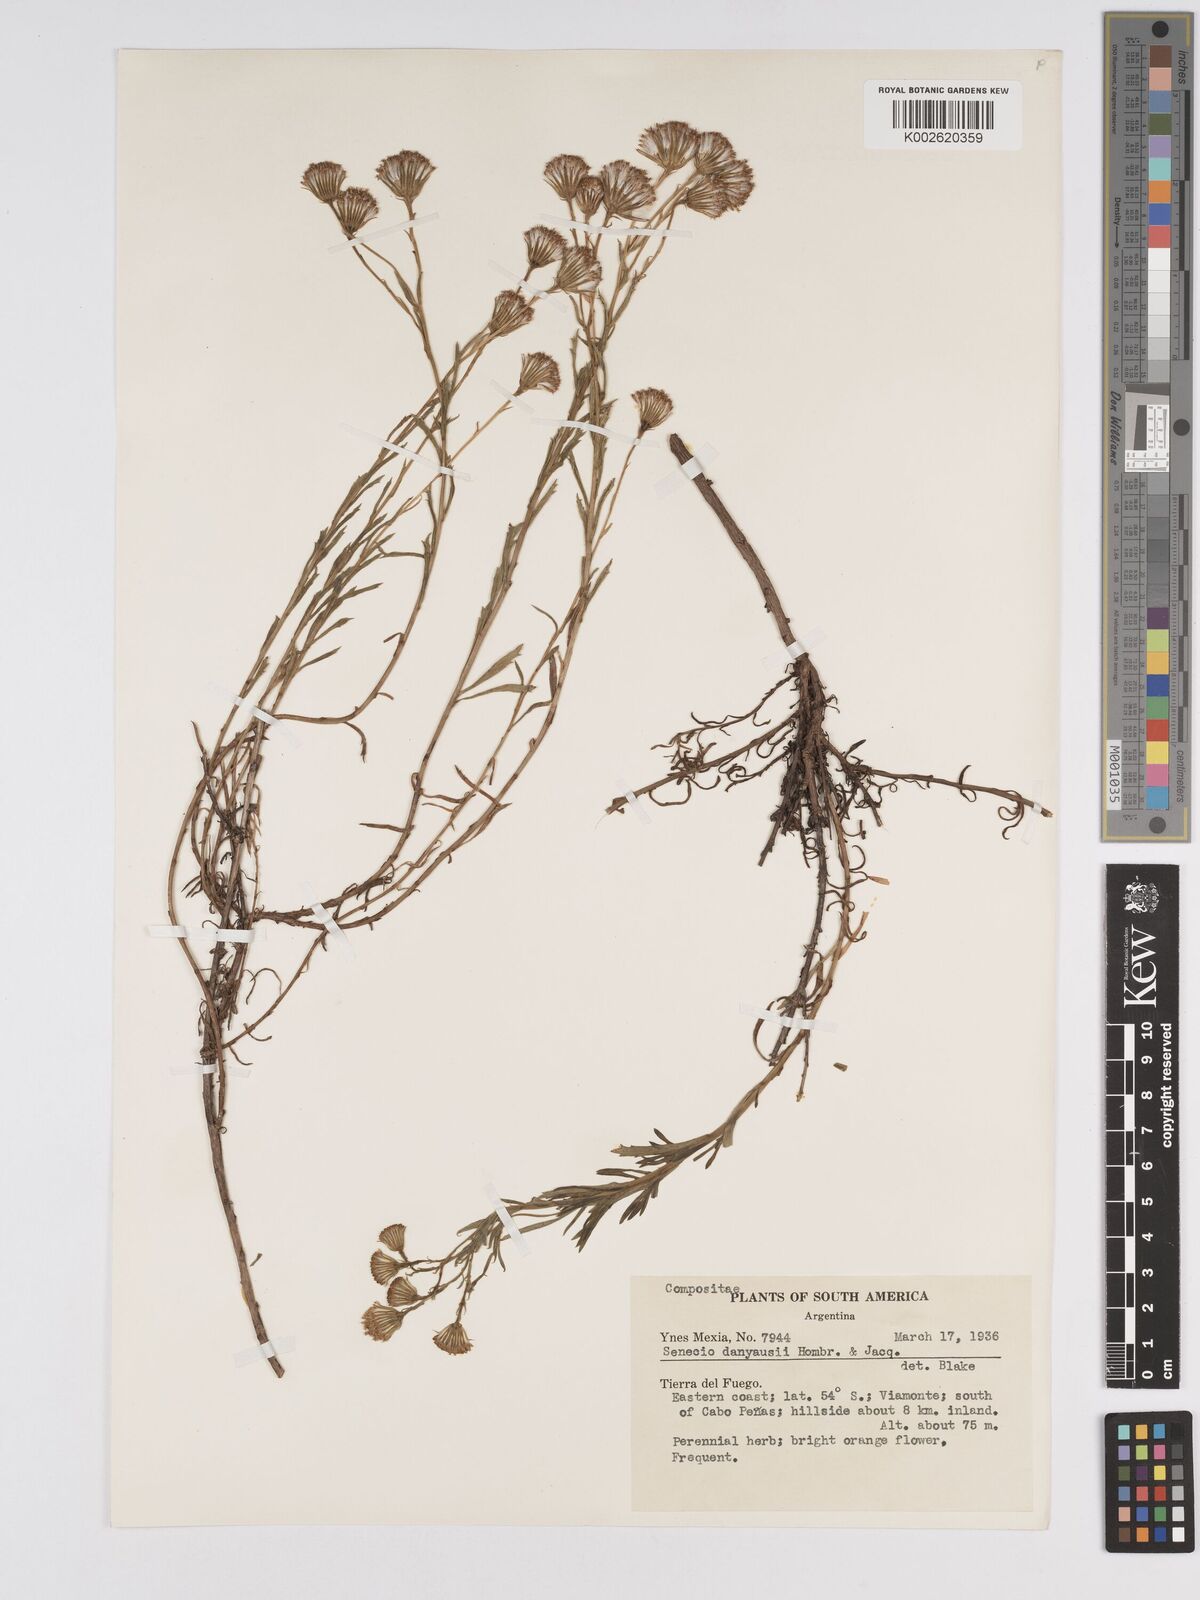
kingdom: Plantae
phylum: Tracheophyta
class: Magnoliopsida
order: Asterales
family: Asteraceae
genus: Senecio
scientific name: Senecio patagonicus
